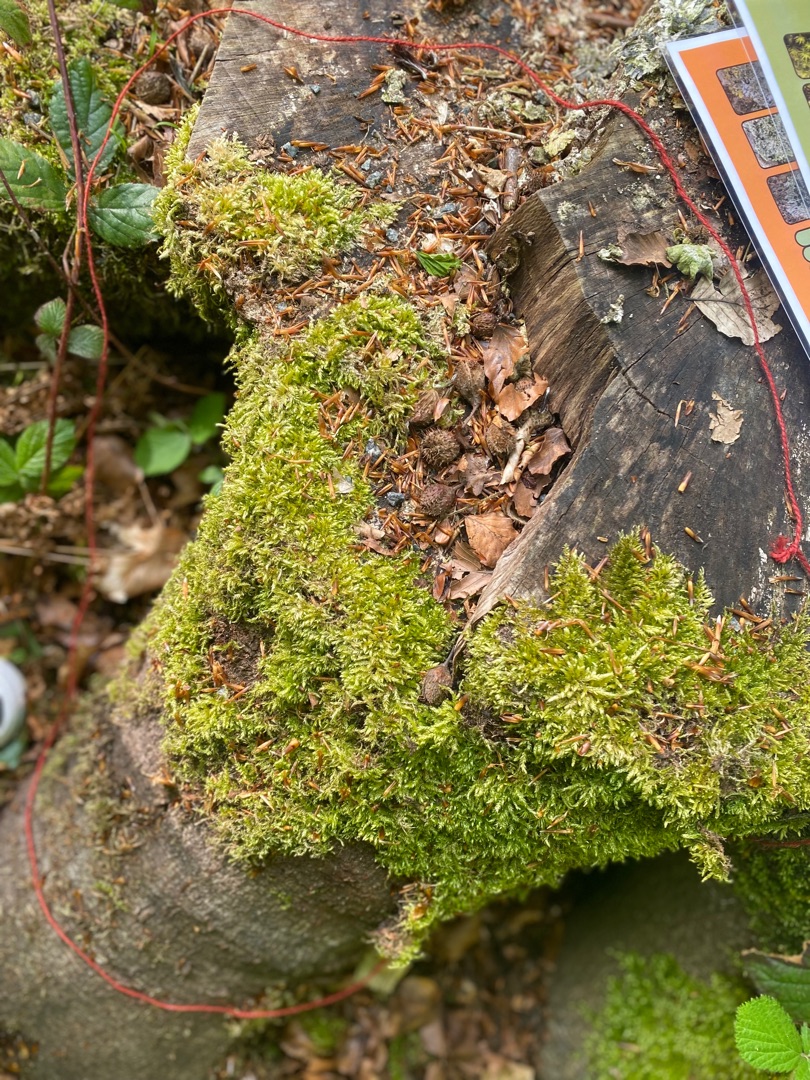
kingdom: Plantae
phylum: Bryophyta
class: Bryopsida
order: Hypnales
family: Brachytheciaceae
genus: Brachythecium
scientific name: Brachythecium rutabulum
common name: Almindelig kortkapsel
